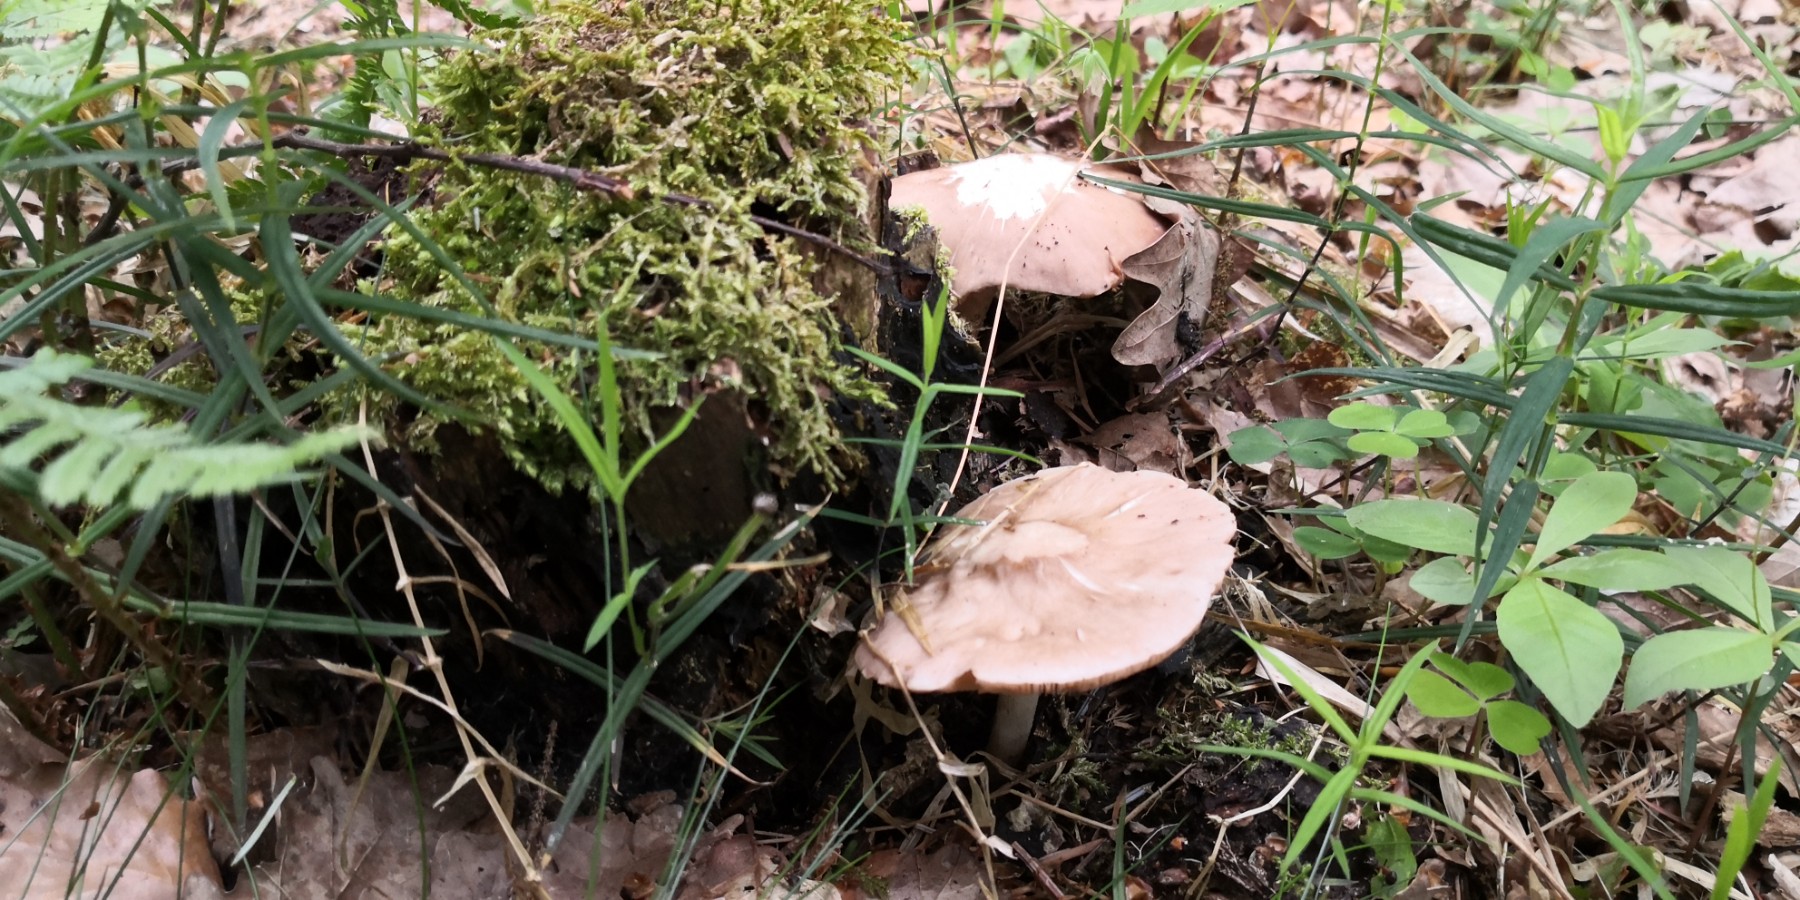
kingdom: Fungi
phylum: Basidiomycota
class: Agaricomycetes
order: Agaricales
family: Pluteaceae
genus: Pluteus
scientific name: Pluteus
